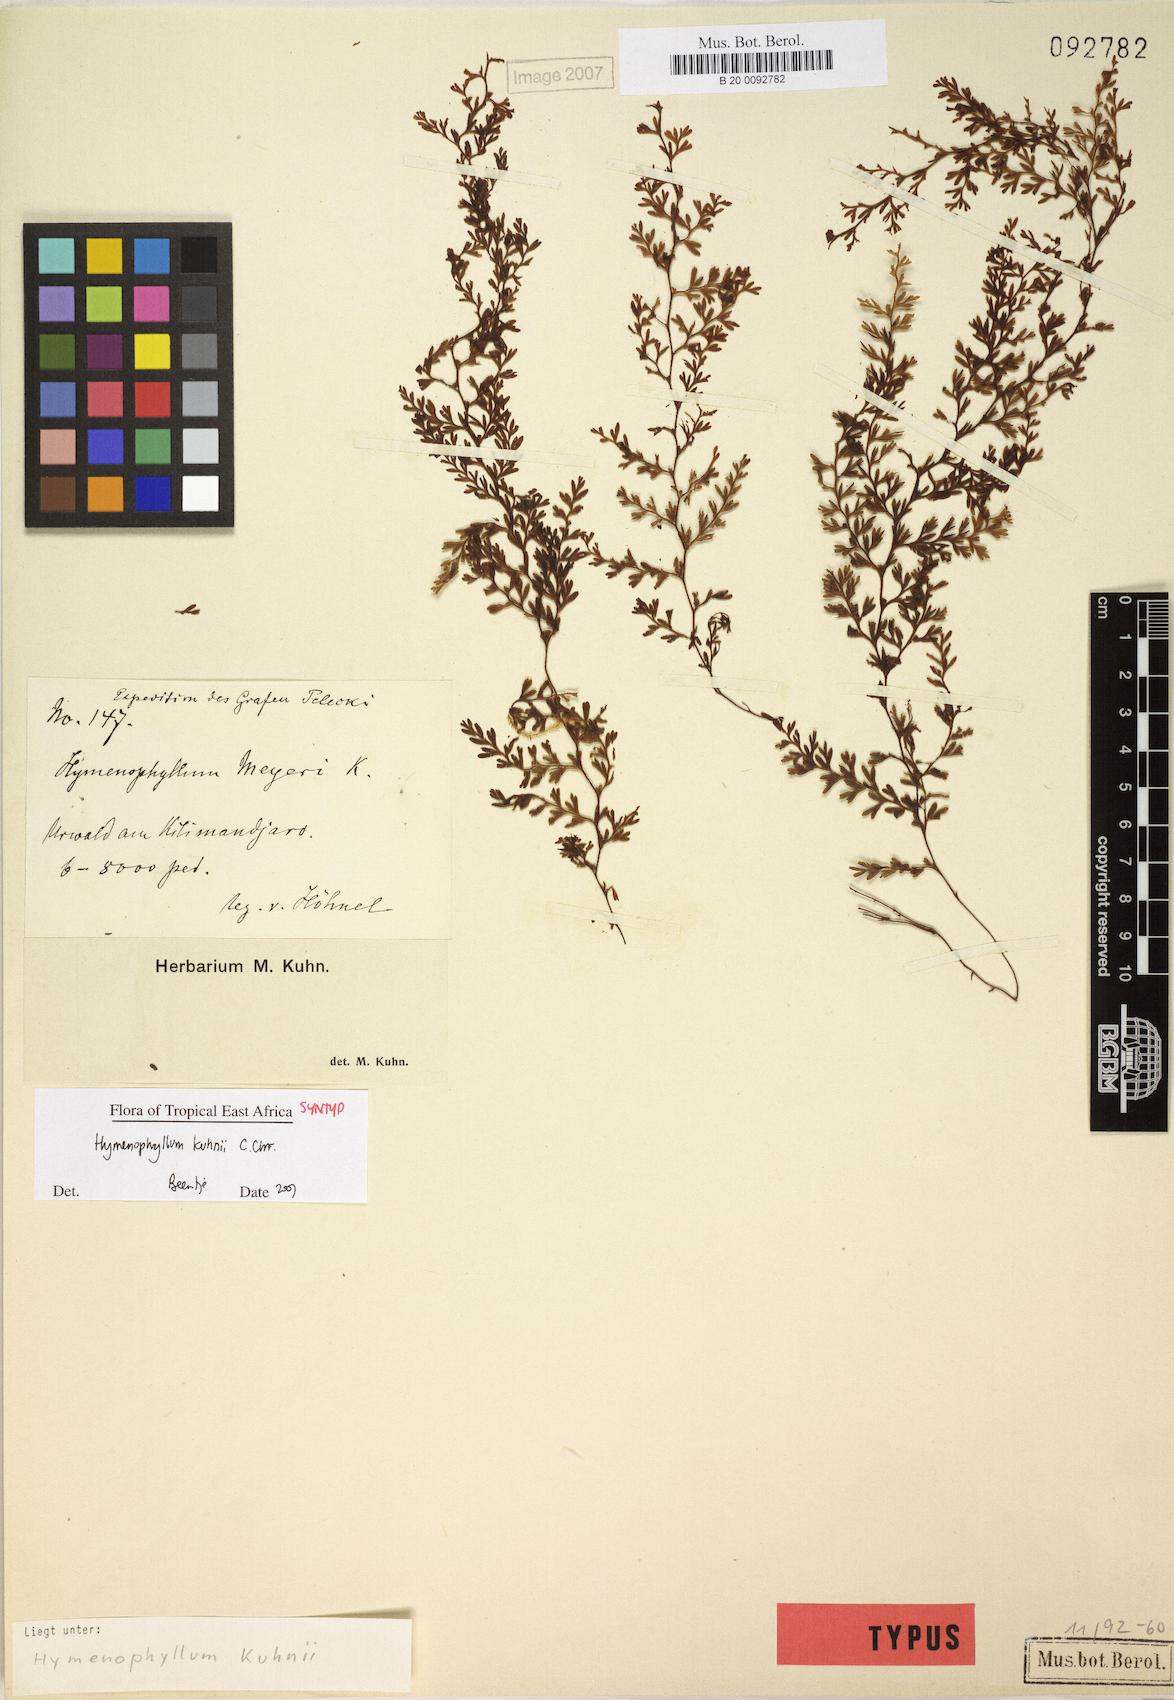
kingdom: Plantae
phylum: Tracheophyta
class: Polypodiopsida
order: Hymenophyllales
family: Hymenophyllaceae
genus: Hymenophyllum
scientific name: Hymenophyllum kuhnii
